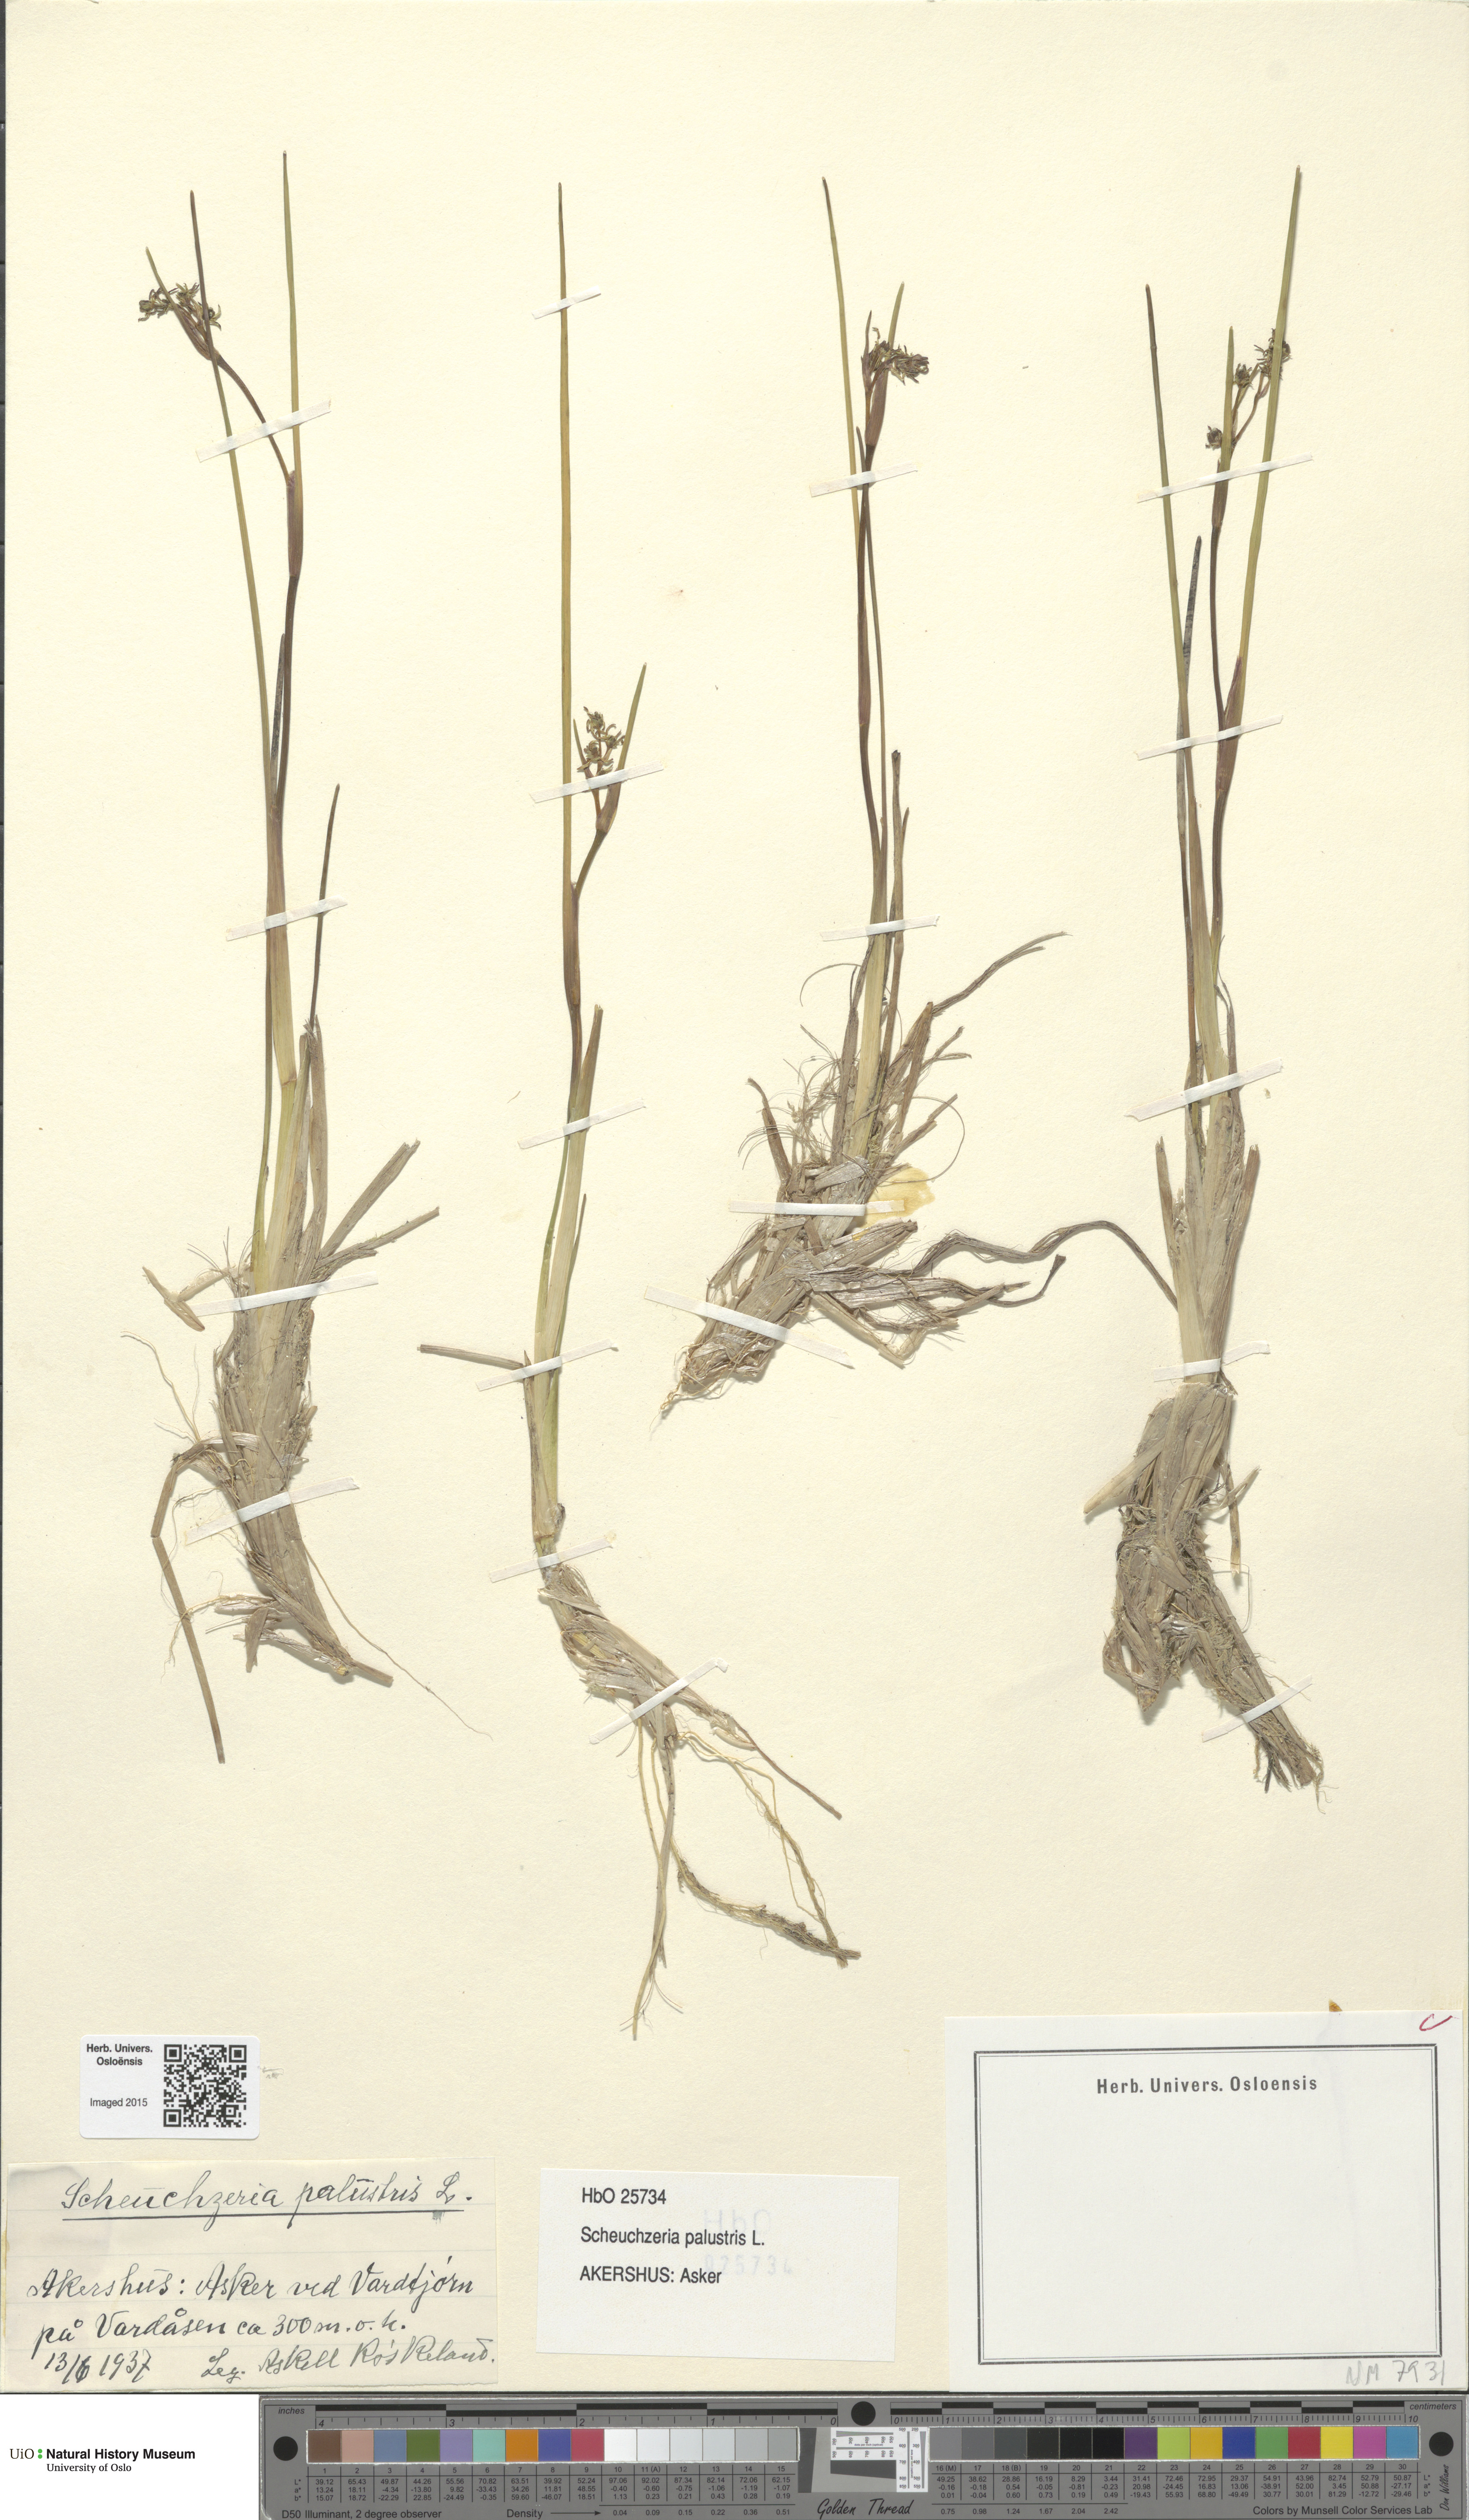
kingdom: Plantae
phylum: Tracheophyta
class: Liliopsida
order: Alismatales
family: Scheuchzeriaceae
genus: Scheuchzeria
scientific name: Scheuchzeria palustris
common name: Rannoch-rush
